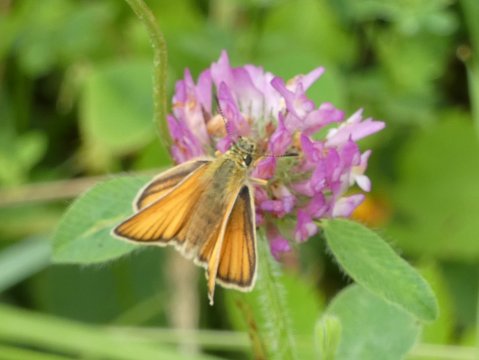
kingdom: Animalia
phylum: Arthropoda
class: Insecta
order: Lepidoptera
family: Hesperiidae
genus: Thymelicus
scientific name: Thymelicus lineola
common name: European Skipper
